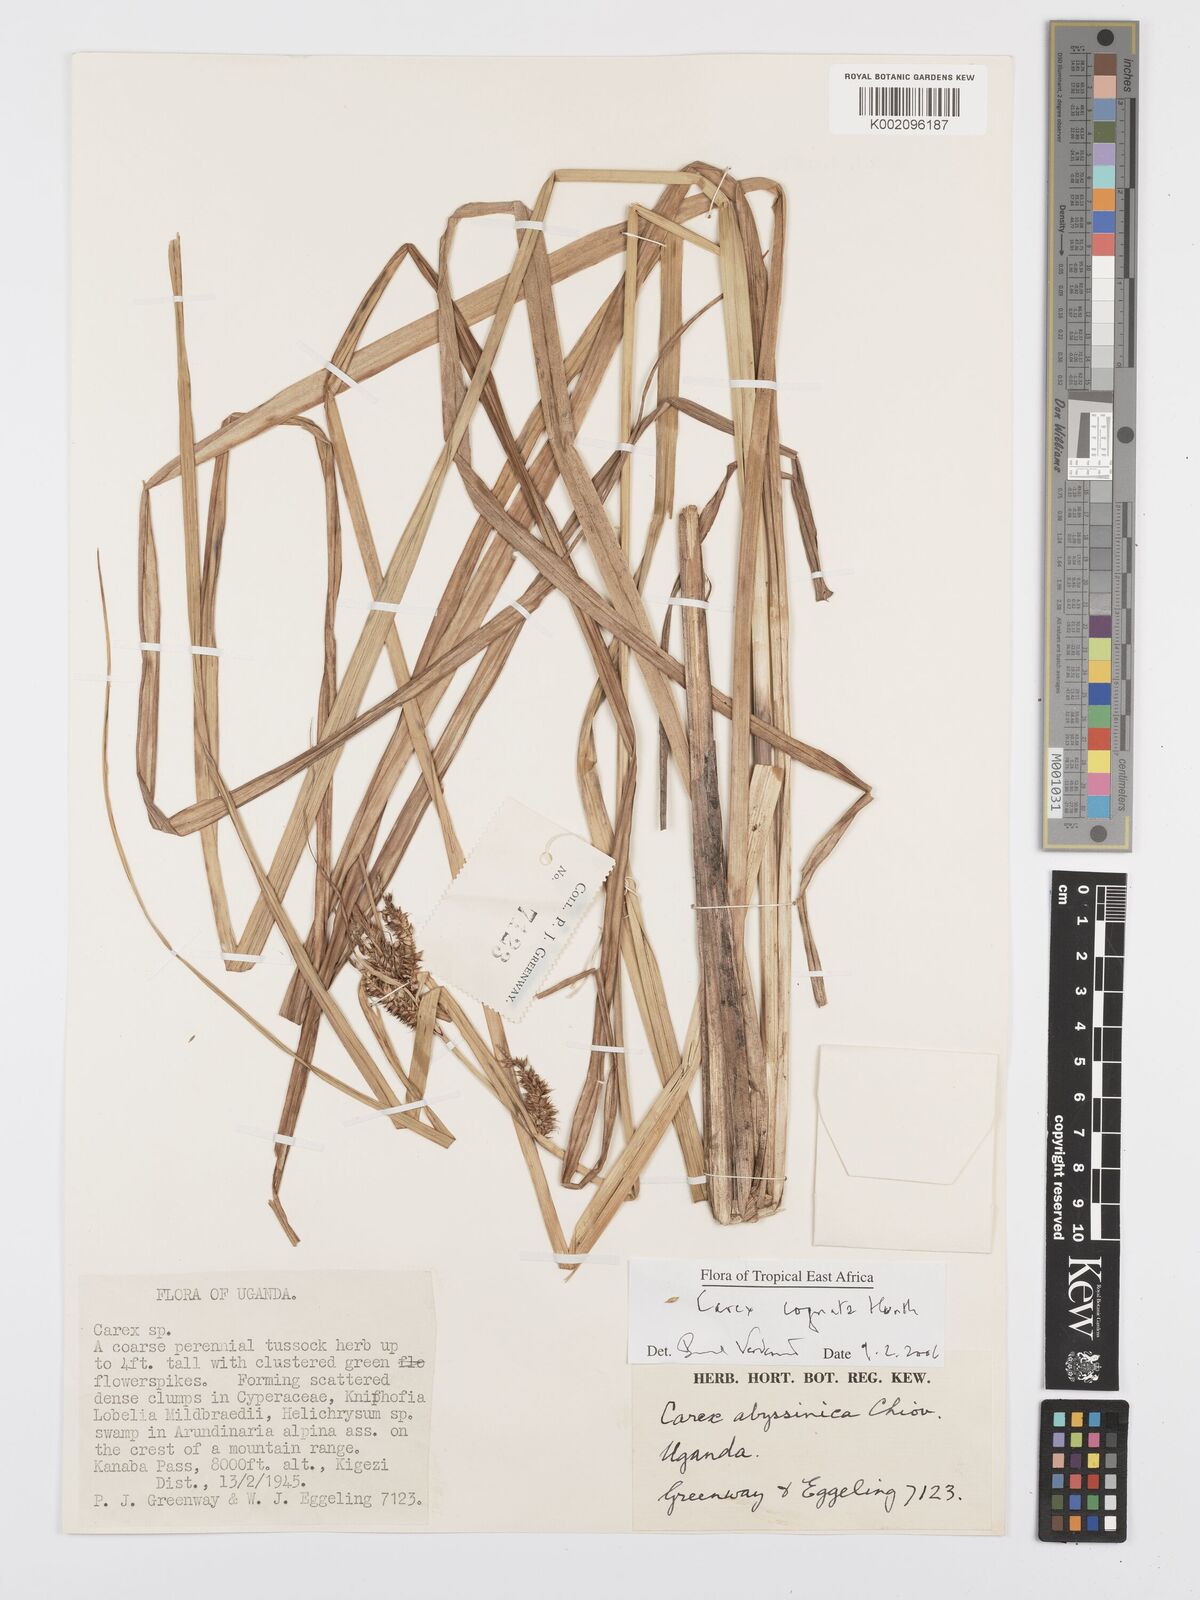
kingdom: Plantae
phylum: Tracheophyta
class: Liliopsida
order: Poales
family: Cyperaceae
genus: Carex
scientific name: Carex congolensis
